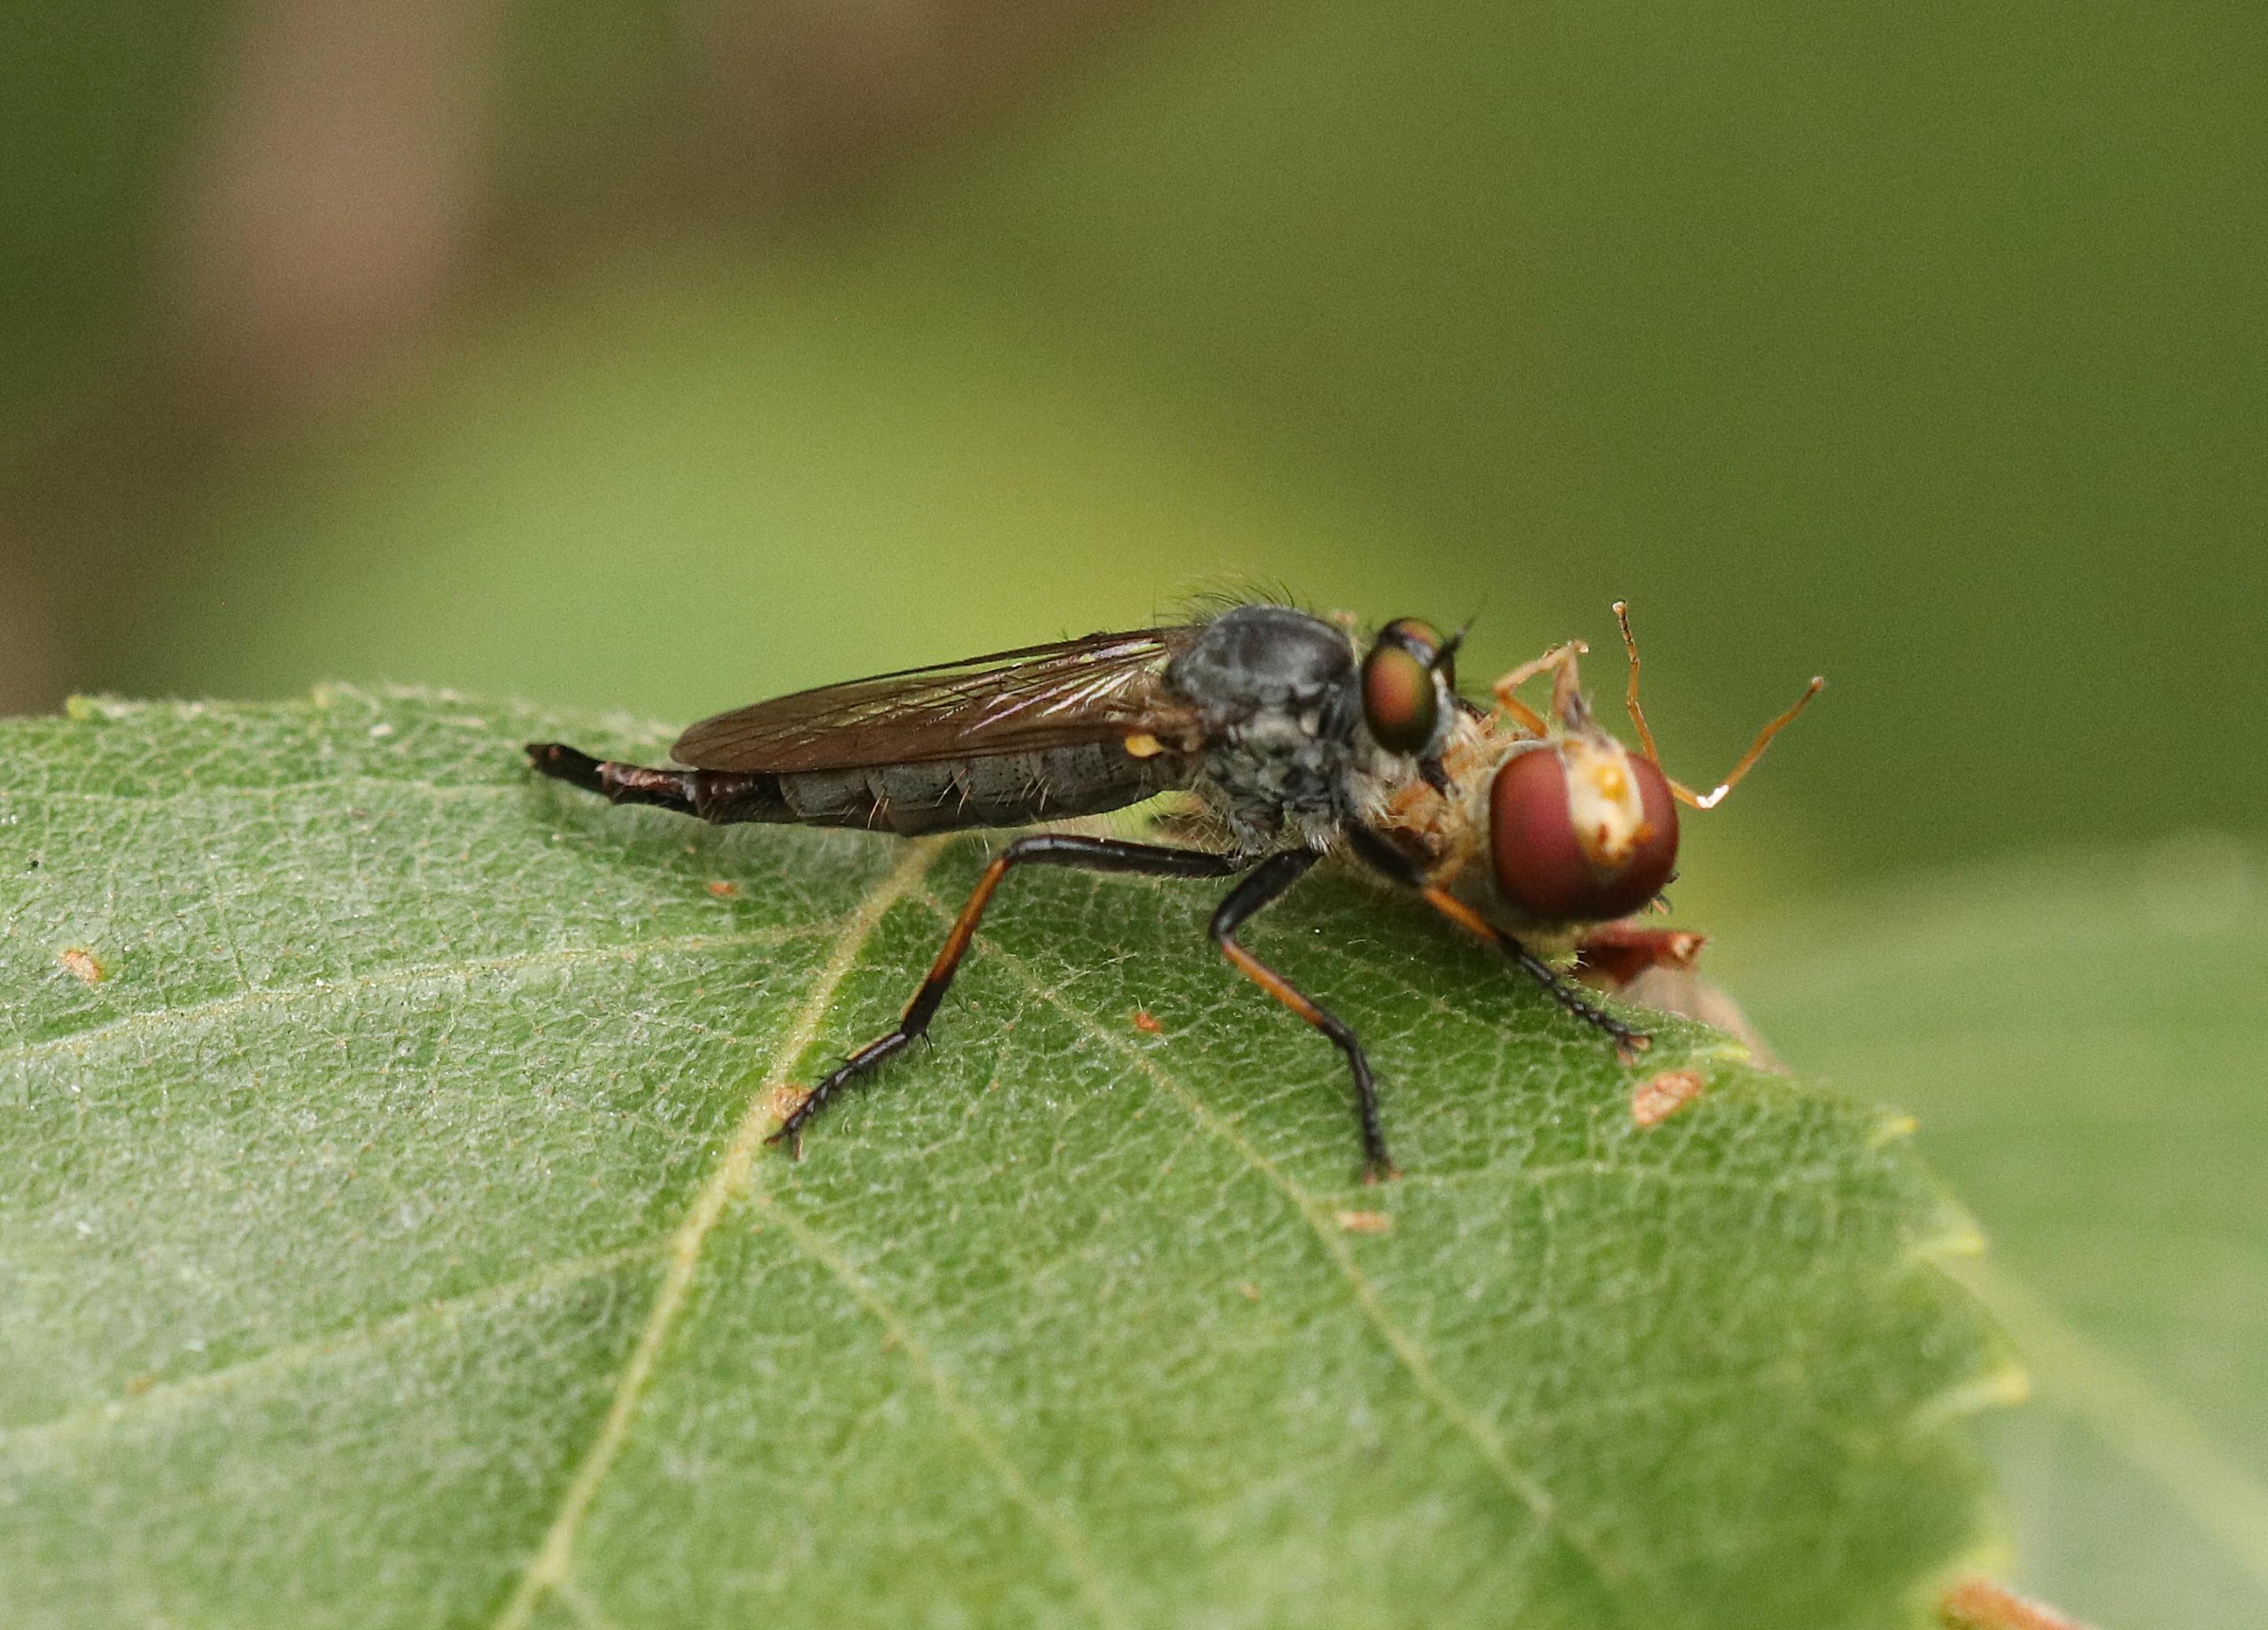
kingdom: Animalia
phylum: Arthropoda
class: Insecta
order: Diptera
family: Asilidae
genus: Neoitamus
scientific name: Neoitamus cyanurus
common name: Sortfodet skovrovflue
